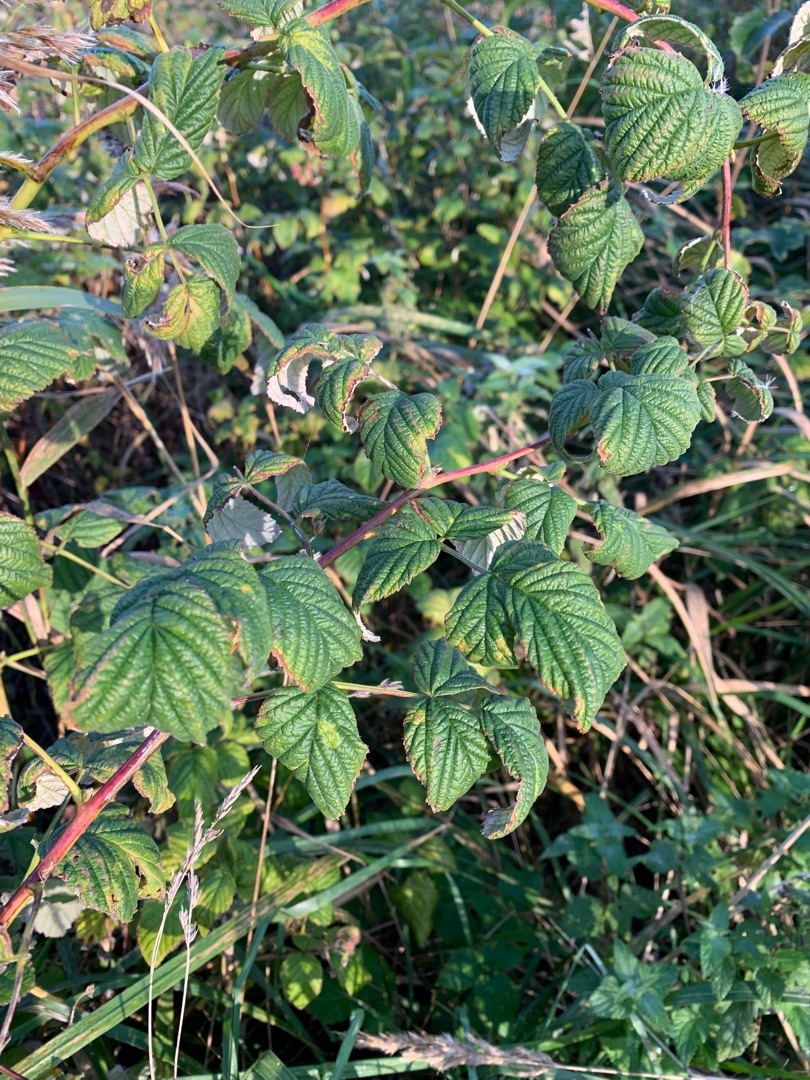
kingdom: Plantae
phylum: Tracheophyta
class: Magnoliopsida
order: Rosales
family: Rosaceae
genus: Rubus
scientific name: Rubus idaeus
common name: Hindbær
